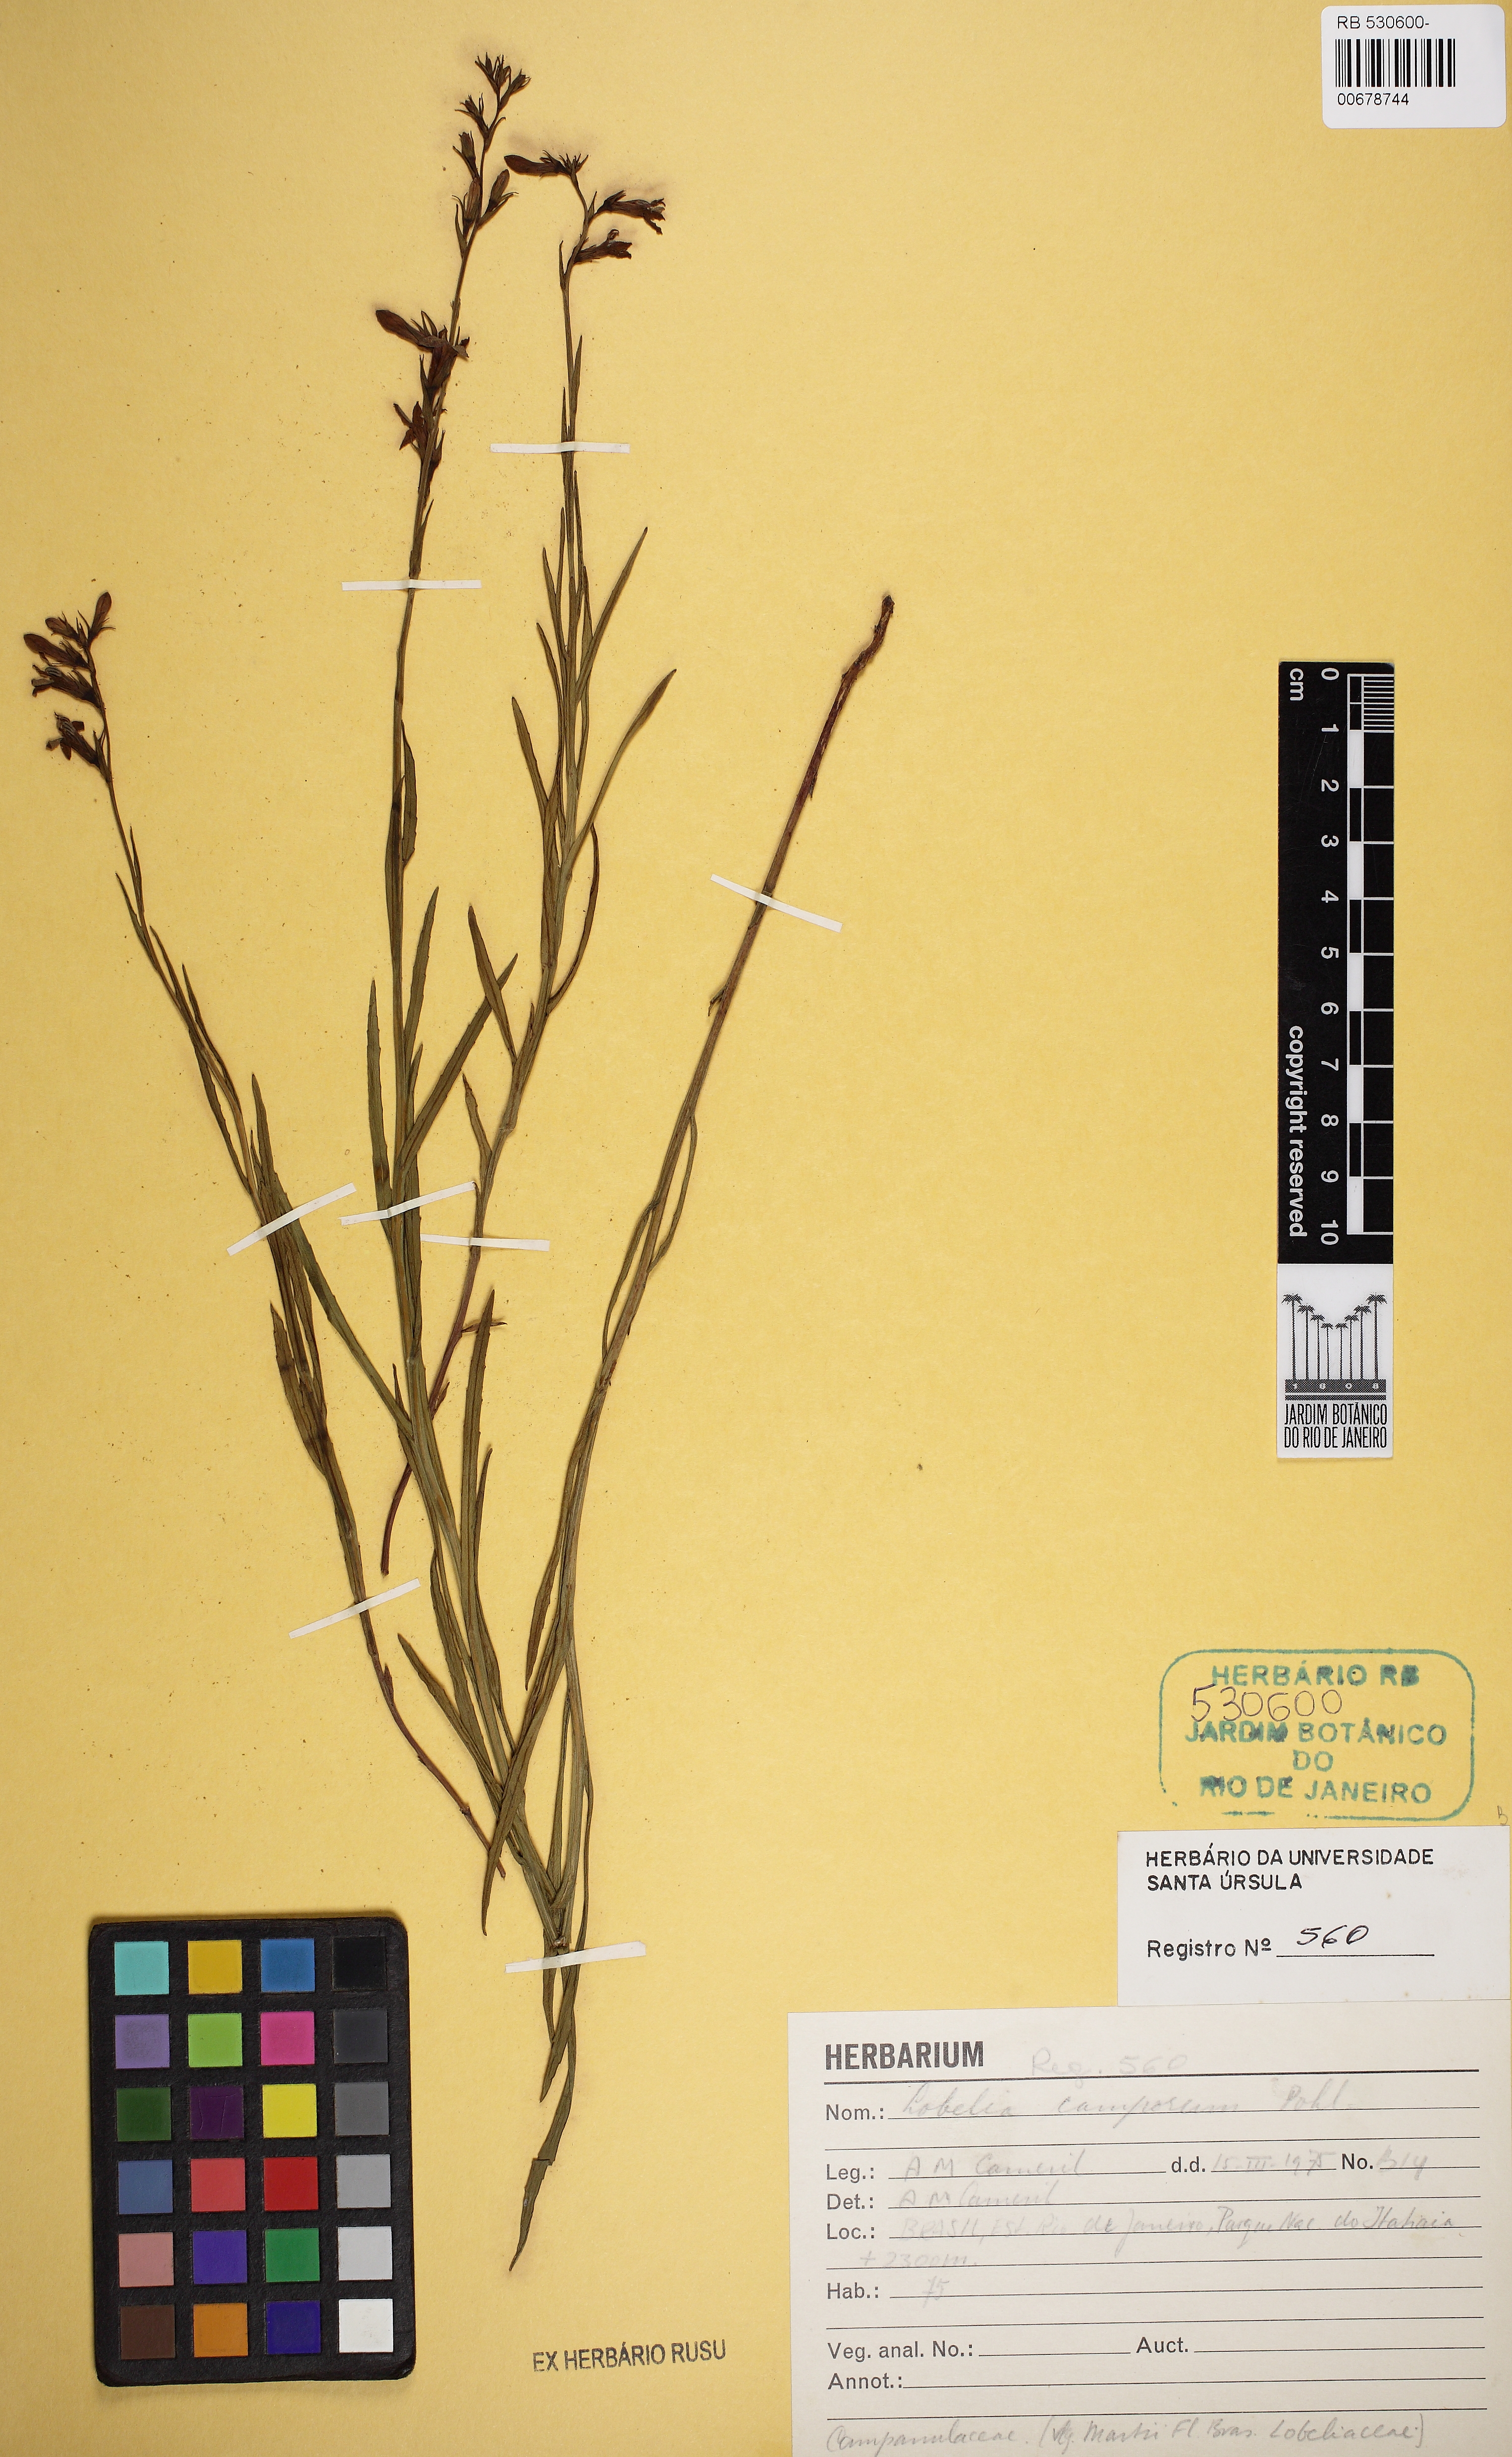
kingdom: Plantae
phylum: Tracheophyta
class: Magnoliopsida
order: Asterales
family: Campanulaceae
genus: Lobelia
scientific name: Lobelia camporum
